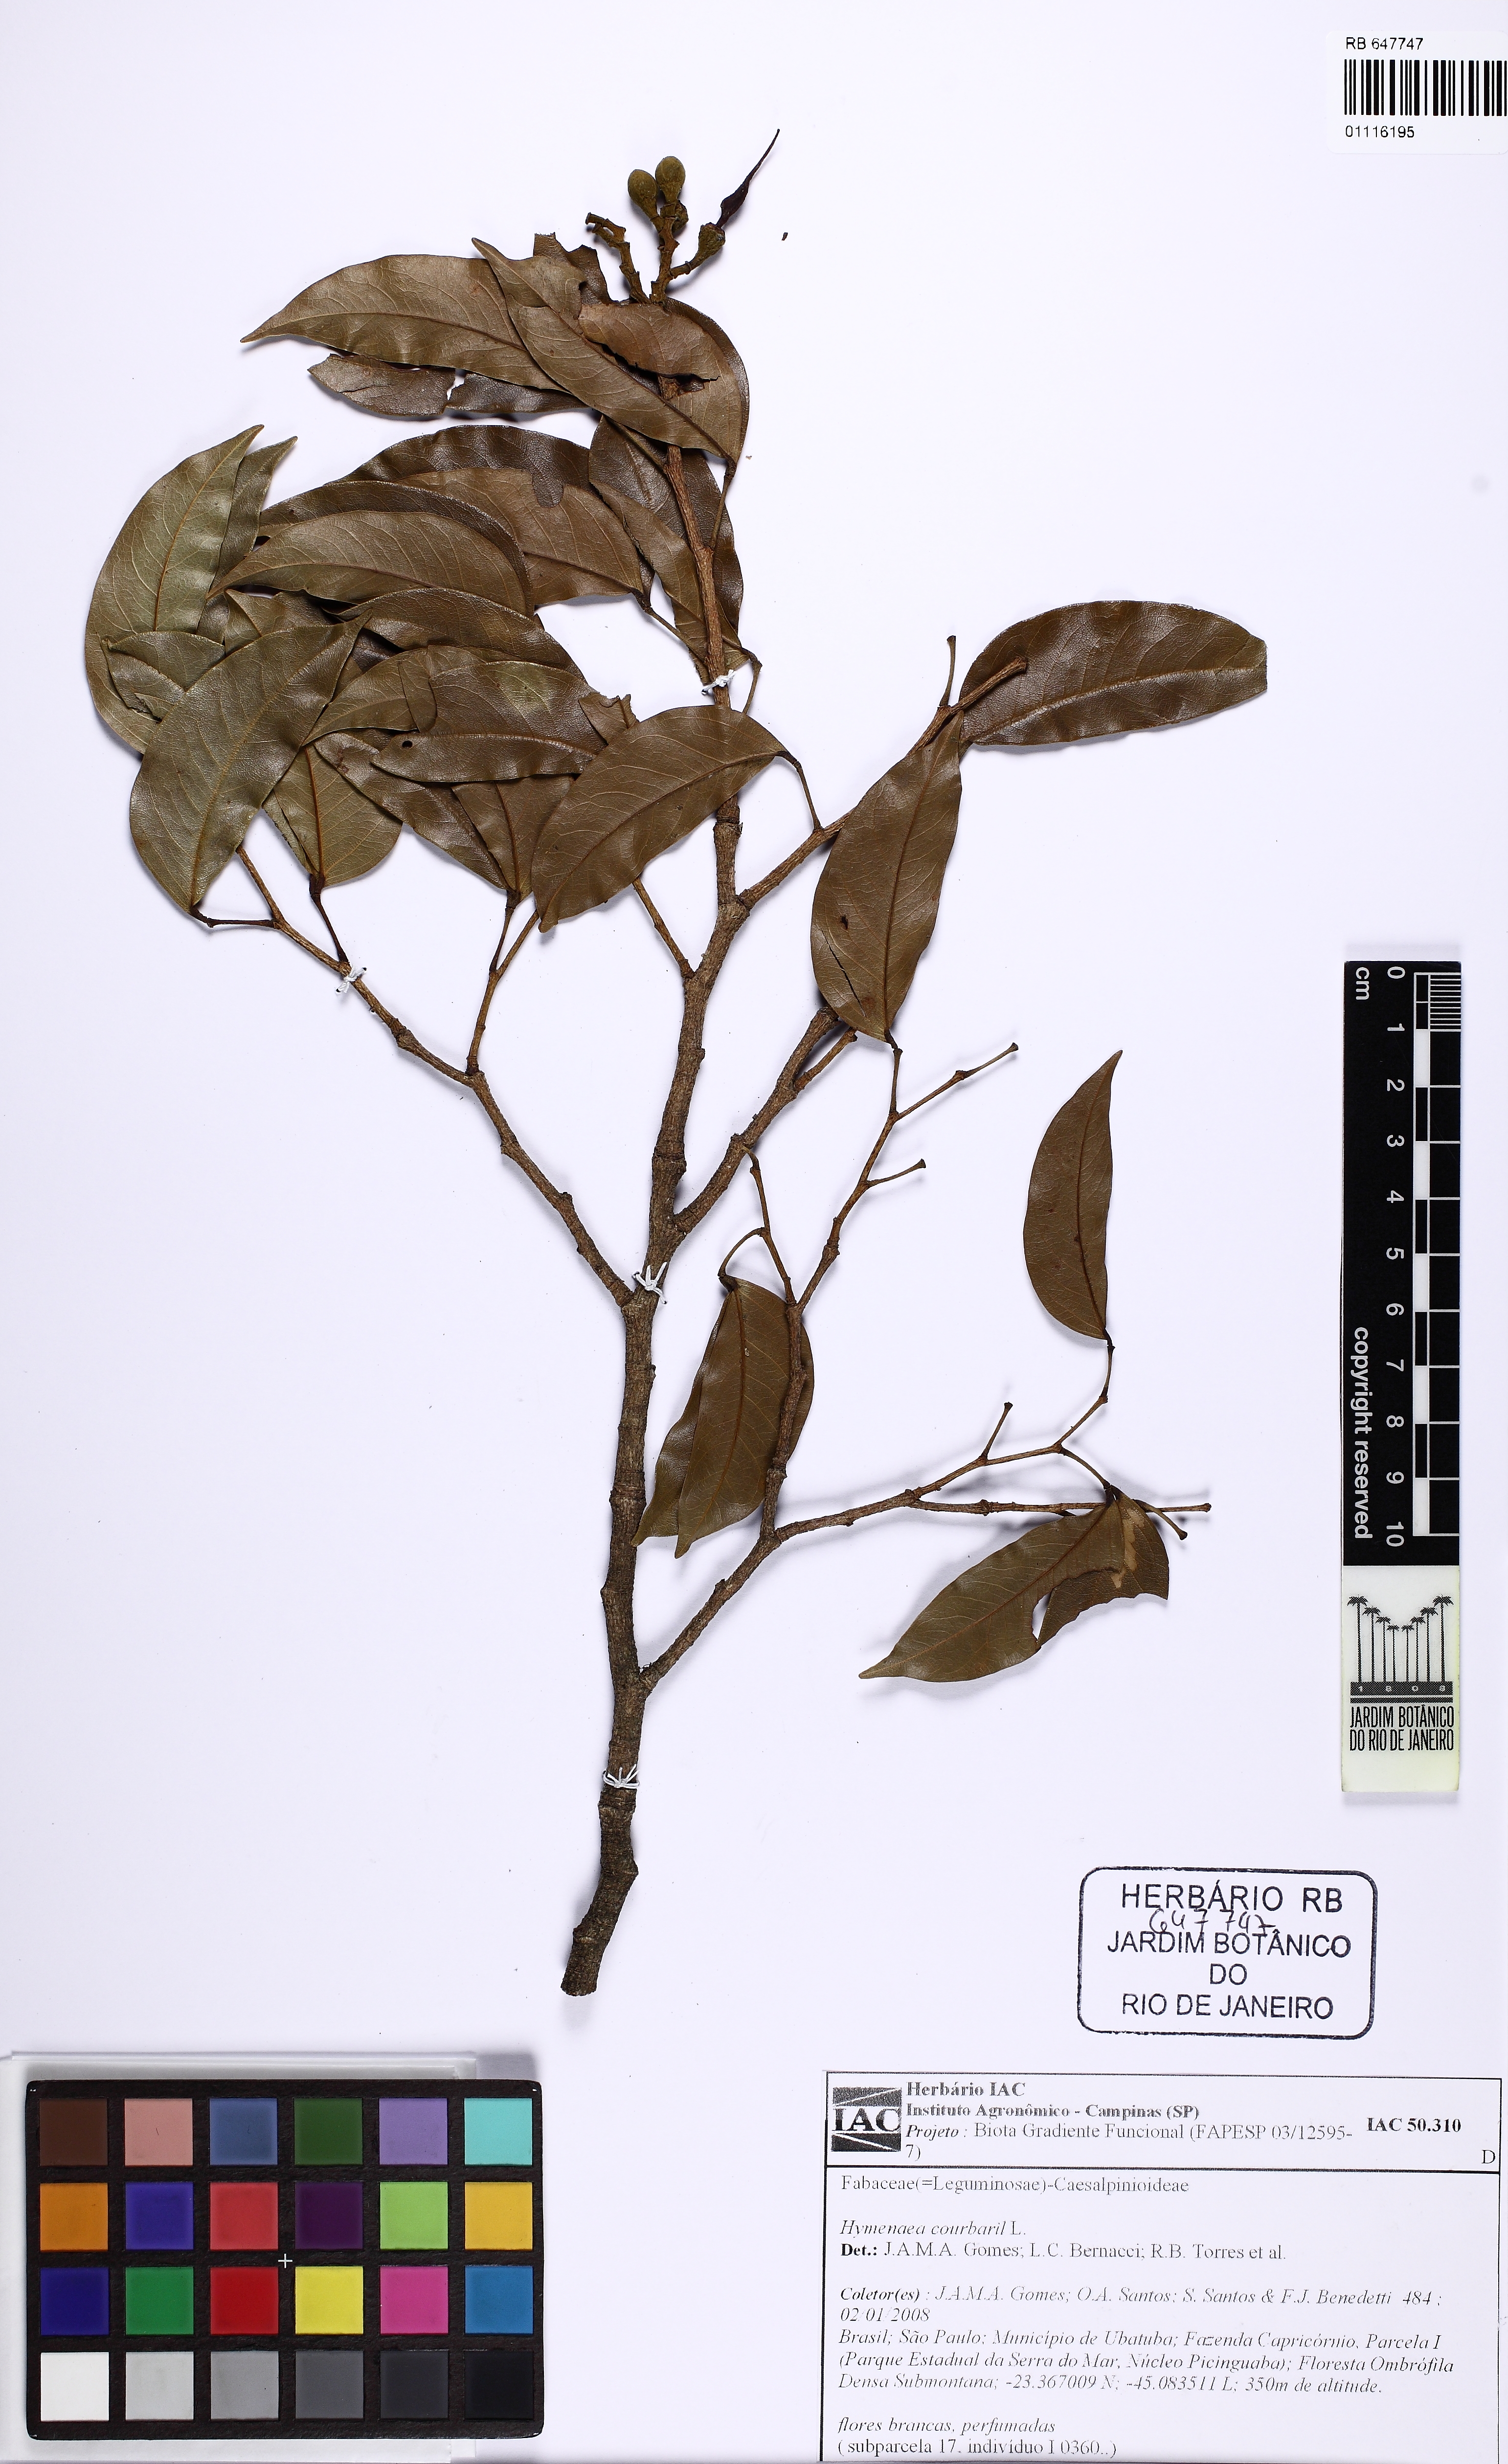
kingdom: Plantae
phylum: Tracheophyta
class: Magnoliopsida
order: Fabales
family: Fabaceae
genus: Hymenaea
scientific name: Hymenaea altissima
